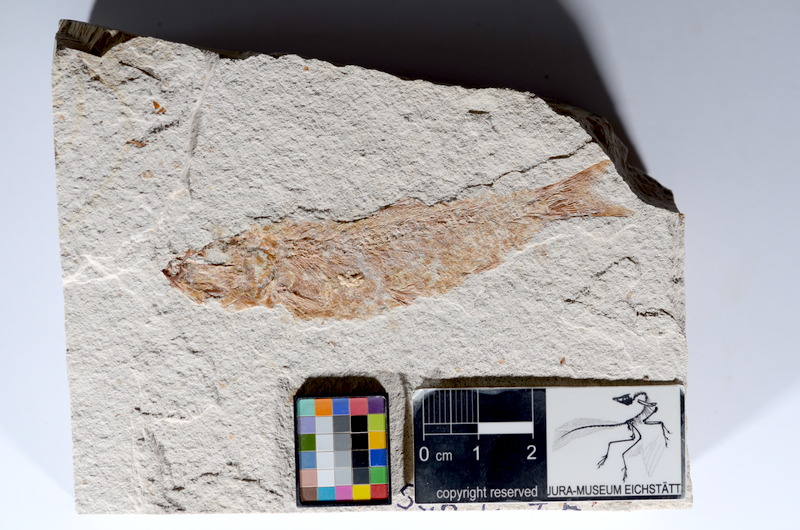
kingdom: Animalia
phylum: Chordata
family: Ascalaboidae
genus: Tharsis
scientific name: Tharsis dubius
